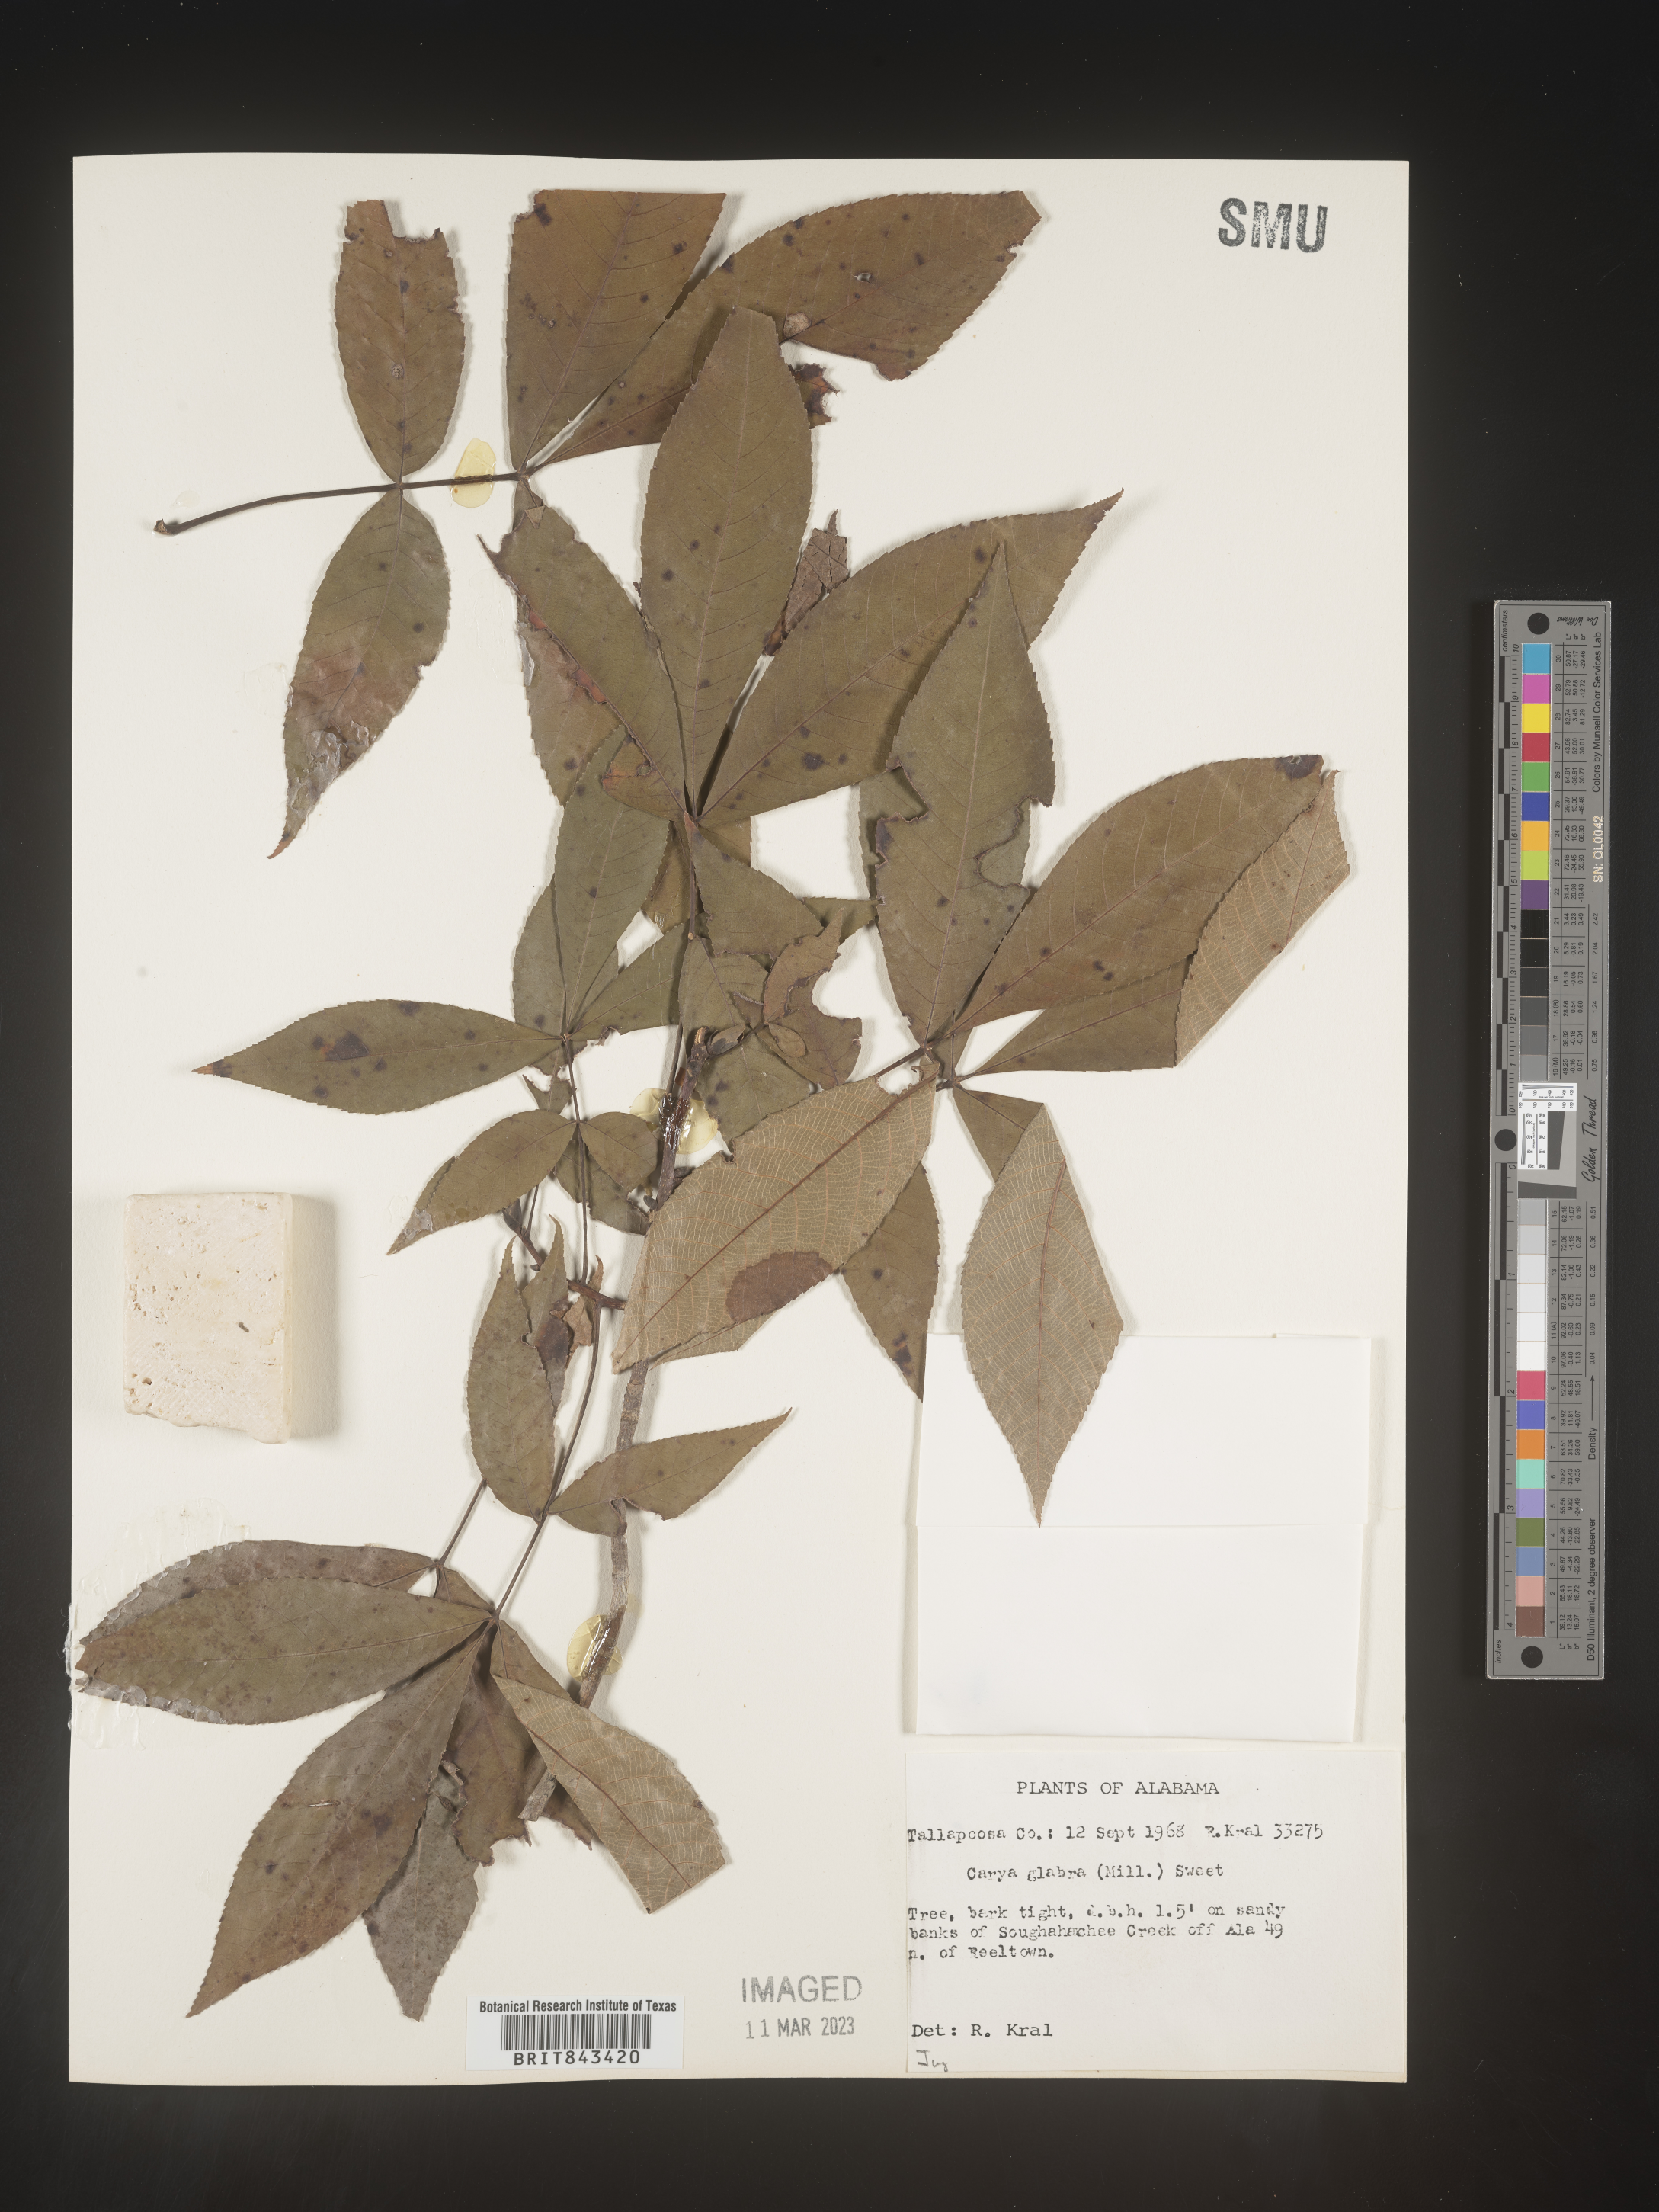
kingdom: Plantae
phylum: Tracheophyta
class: Magnoliopsida
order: Fagales
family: Juglandaceae
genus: Carya
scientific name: Carya glabra
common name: Pignut hickory
